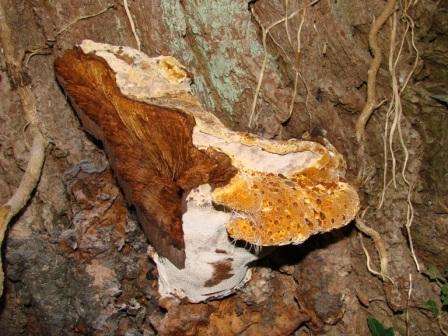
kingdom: Fungi
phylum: Basidiomycota
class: Agaricomycetes
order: Hymenochaetales
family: Hymenochaetaceae
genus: Pseudoinonotus
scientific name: Pseudoinonotus dryadeus
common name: ege-spejlporesvamp
